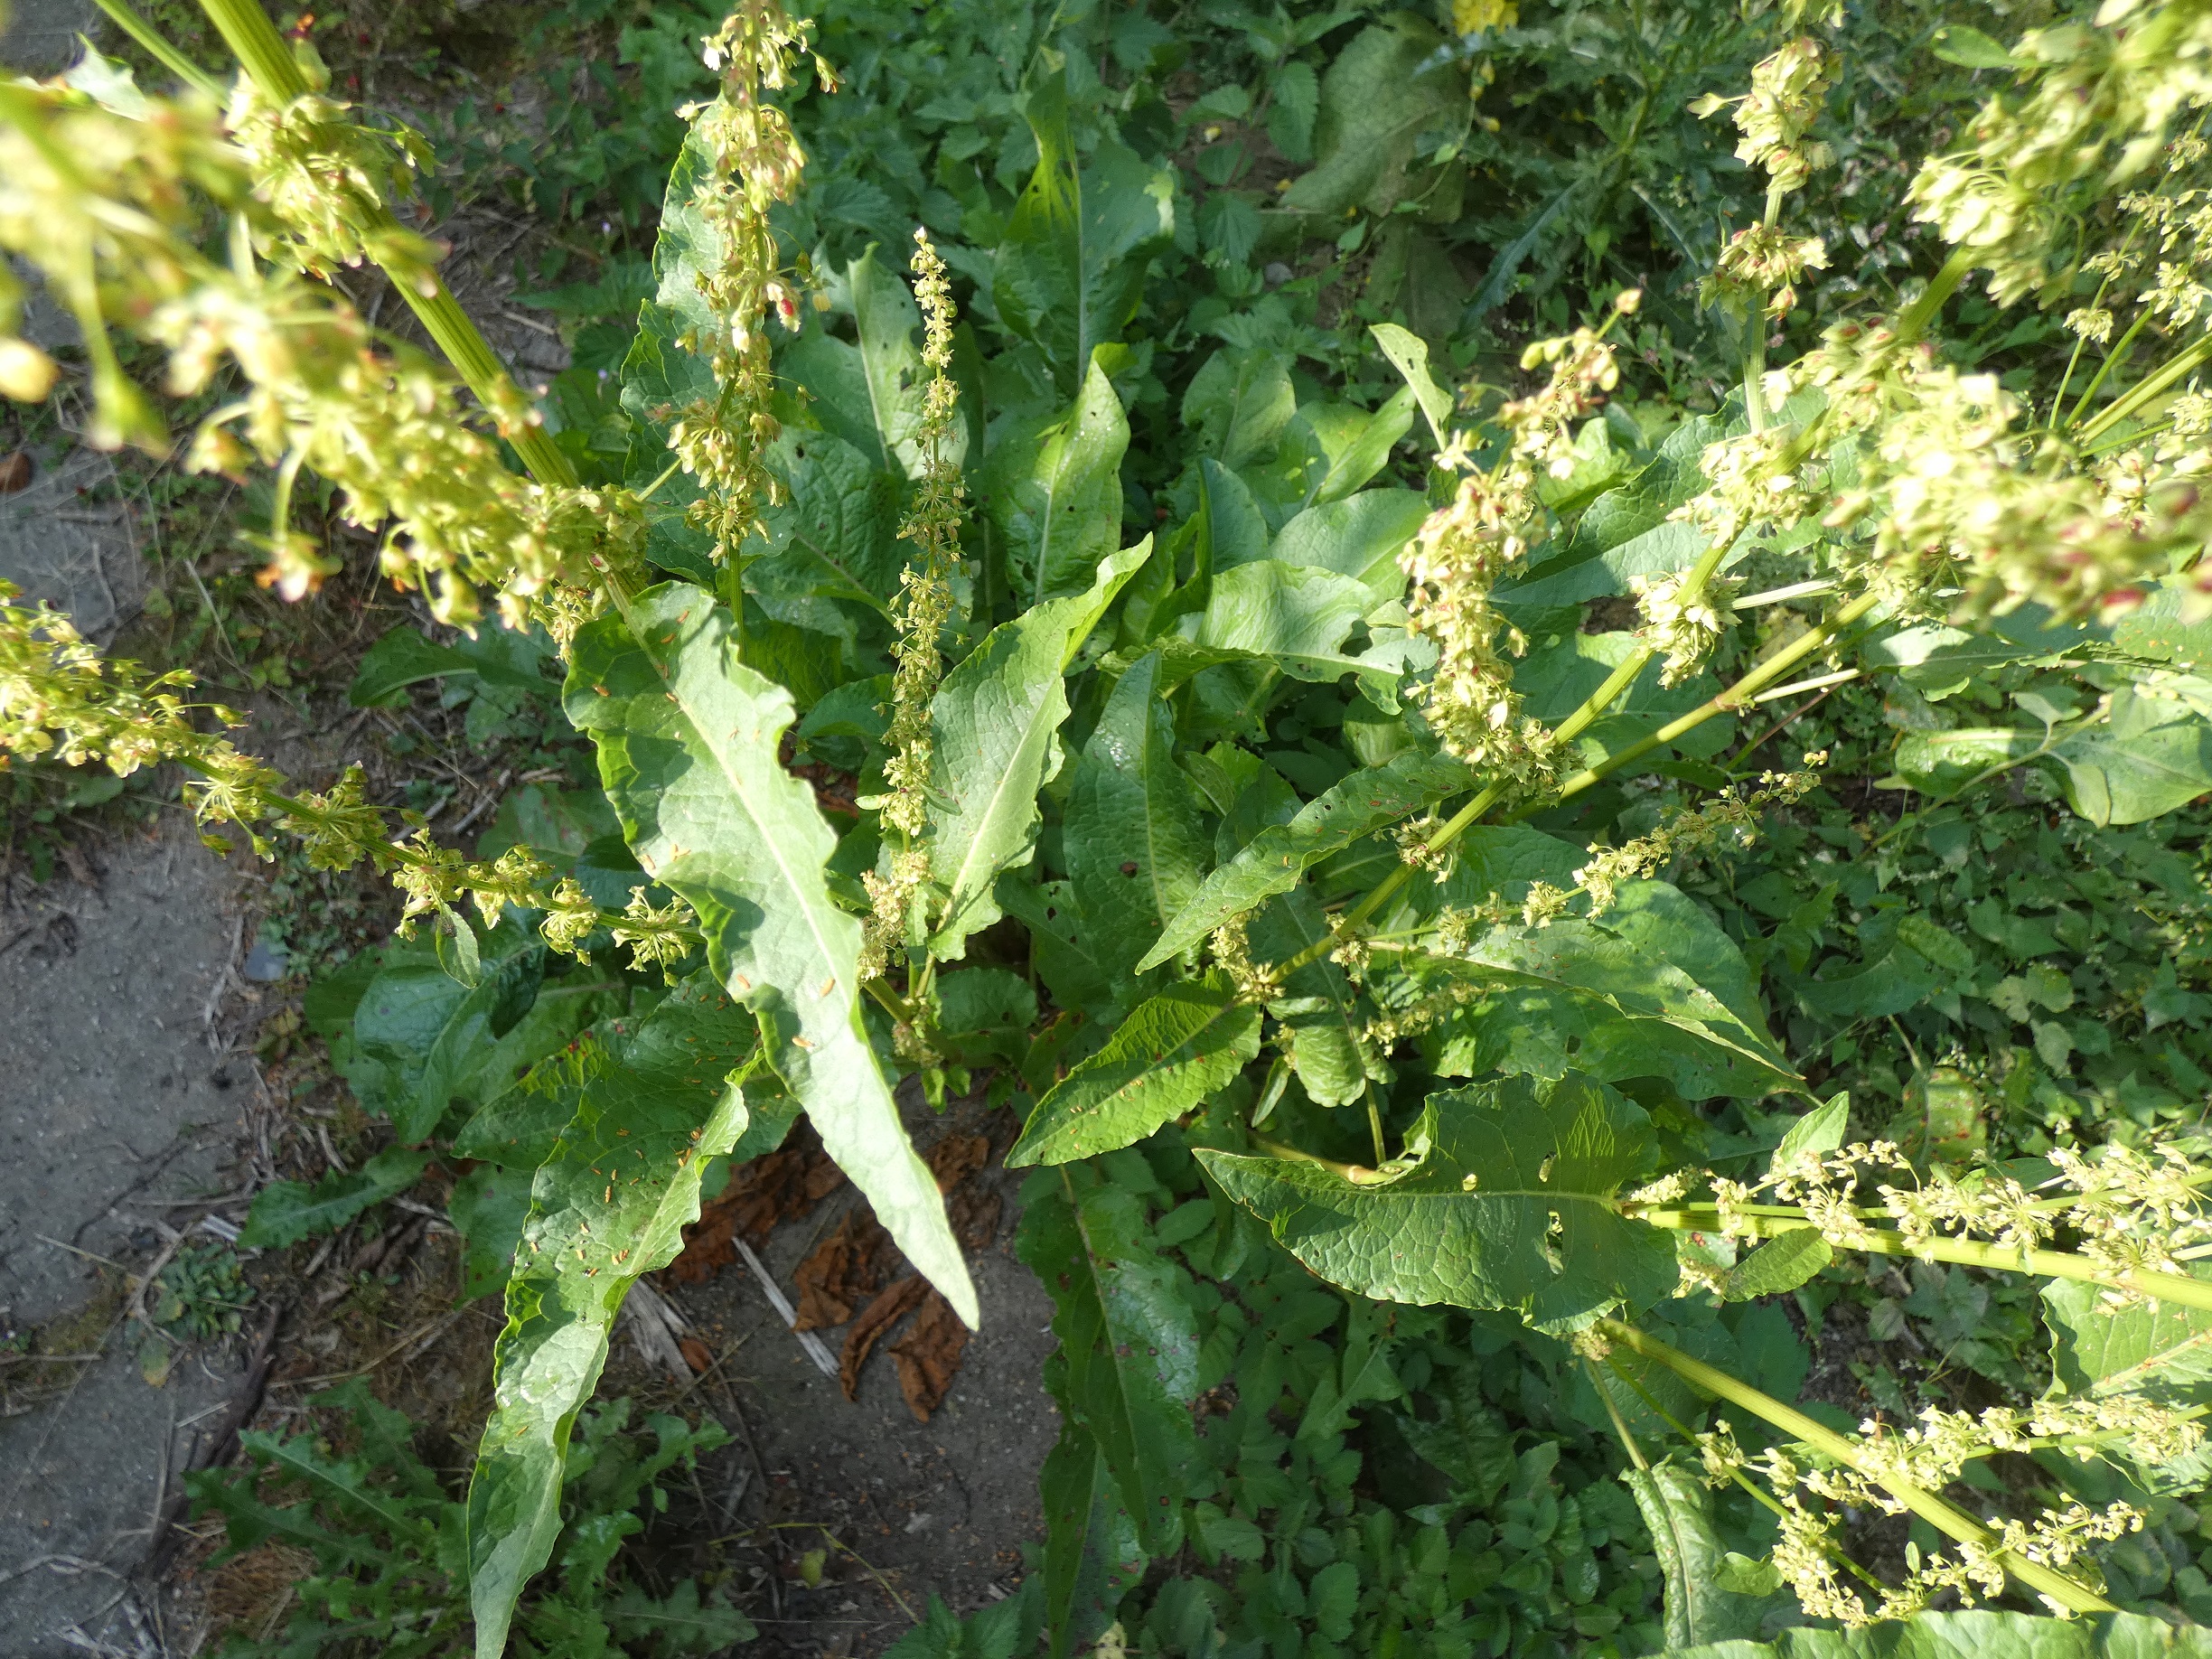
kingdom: Plantae
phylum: Tracheophyta
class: Magnoliopsida
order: Caryophyllales
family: Polygonaceae
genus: Rumex
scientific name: Rumex crispus
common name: Kruset skræppe
